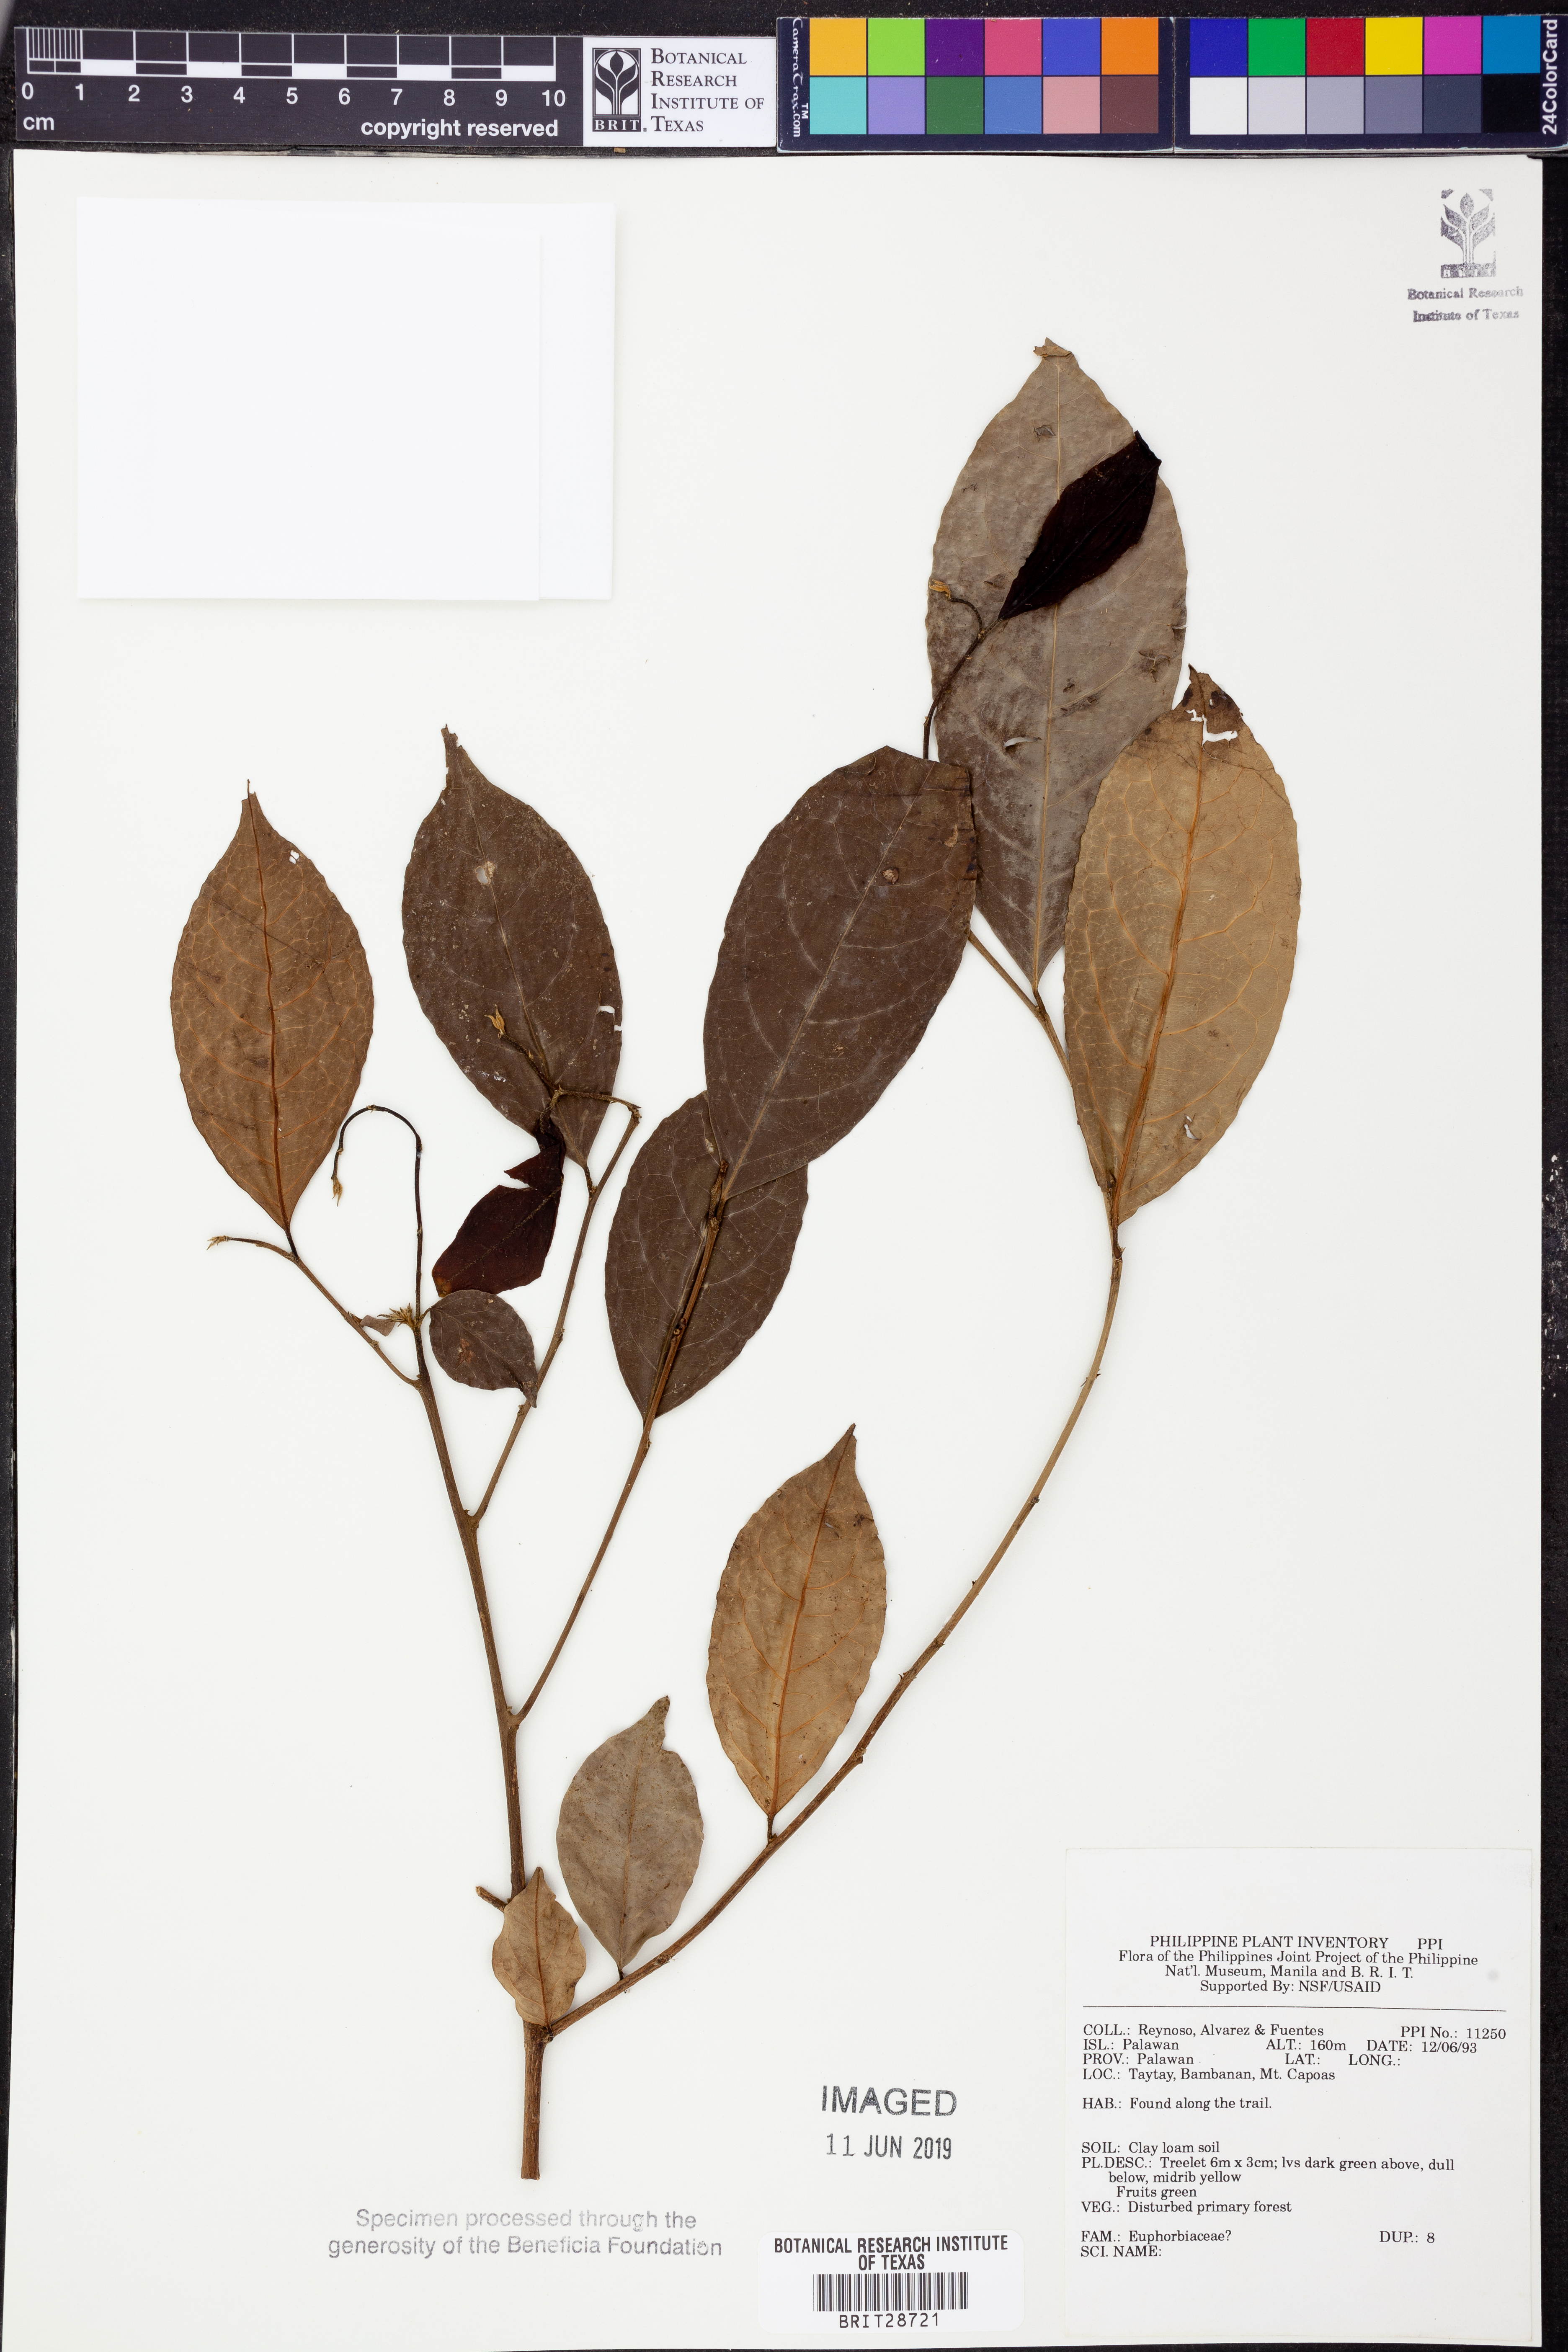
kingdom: Plantae
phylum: Tracheophyta
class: Magnoliopsida
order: Malpighiales
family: Euphorbiaceae
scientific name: Euphorbiaceae
